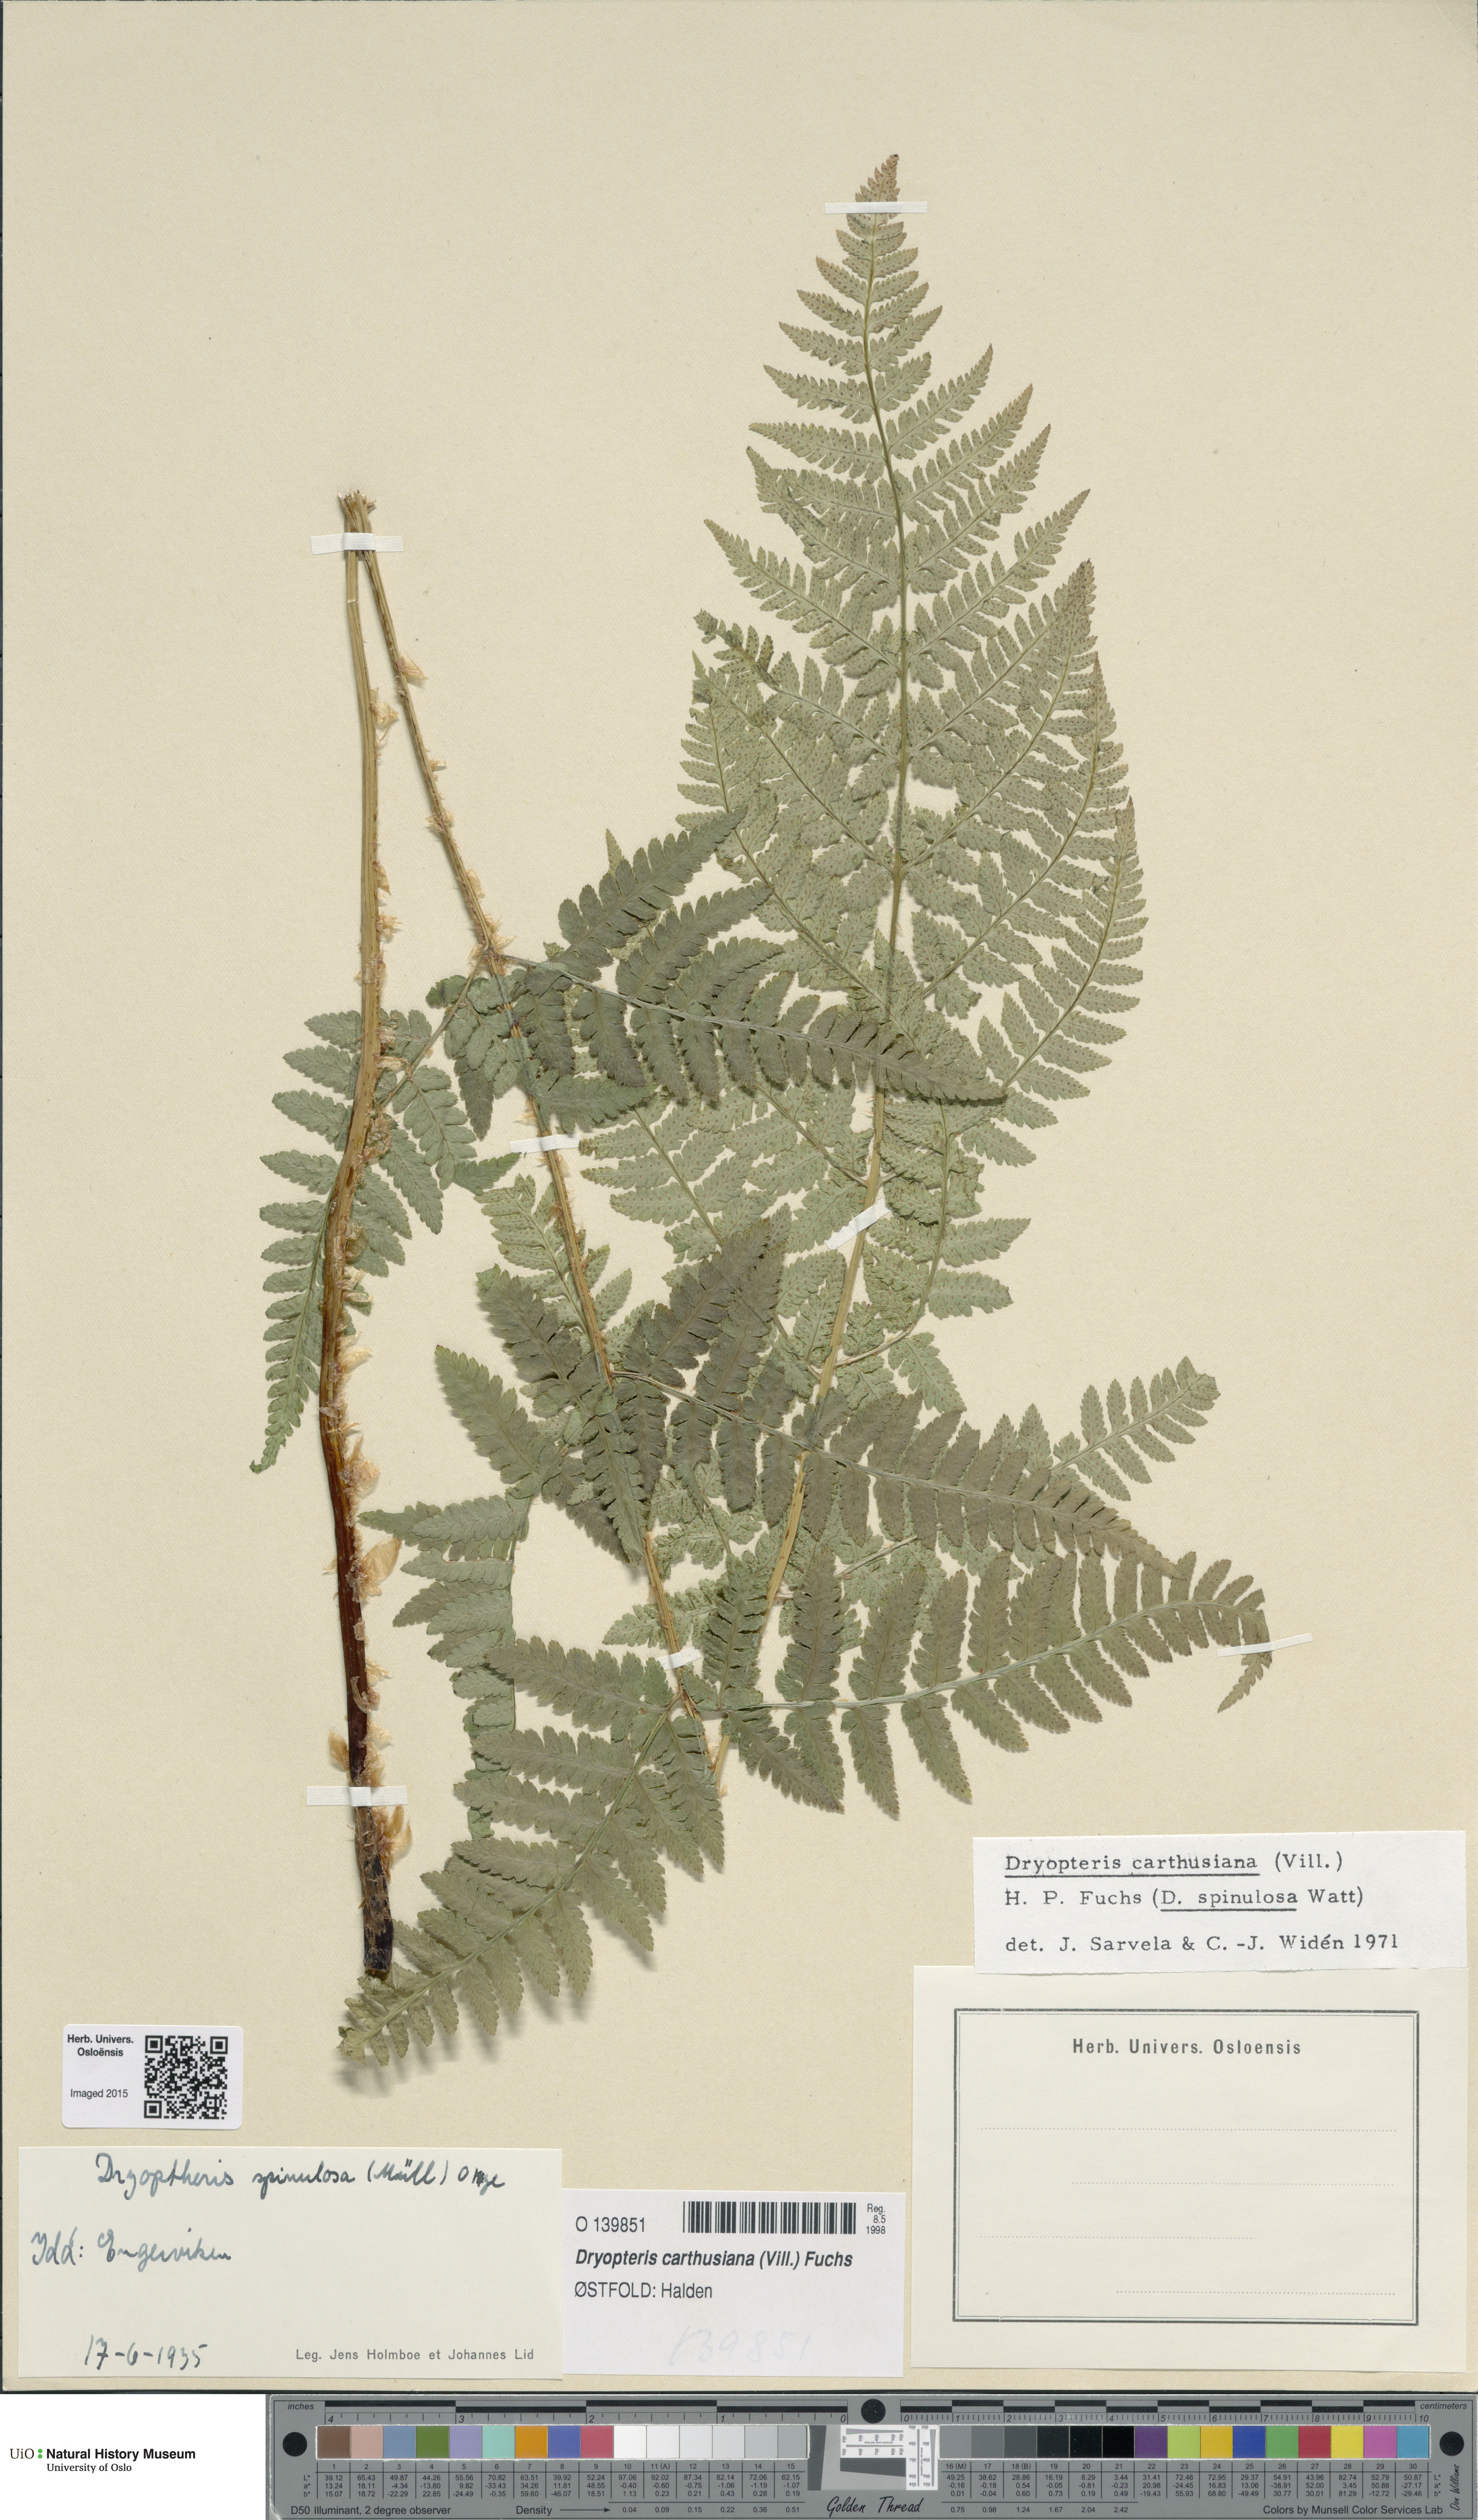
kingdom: Plantae
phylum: Tracheophyta
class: Polypodiopsida
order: Polypodiales
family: Dryopteridaceae
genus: Dryopteris
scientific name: Dryopteris carthusiana
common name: Narrow buckler-fern
